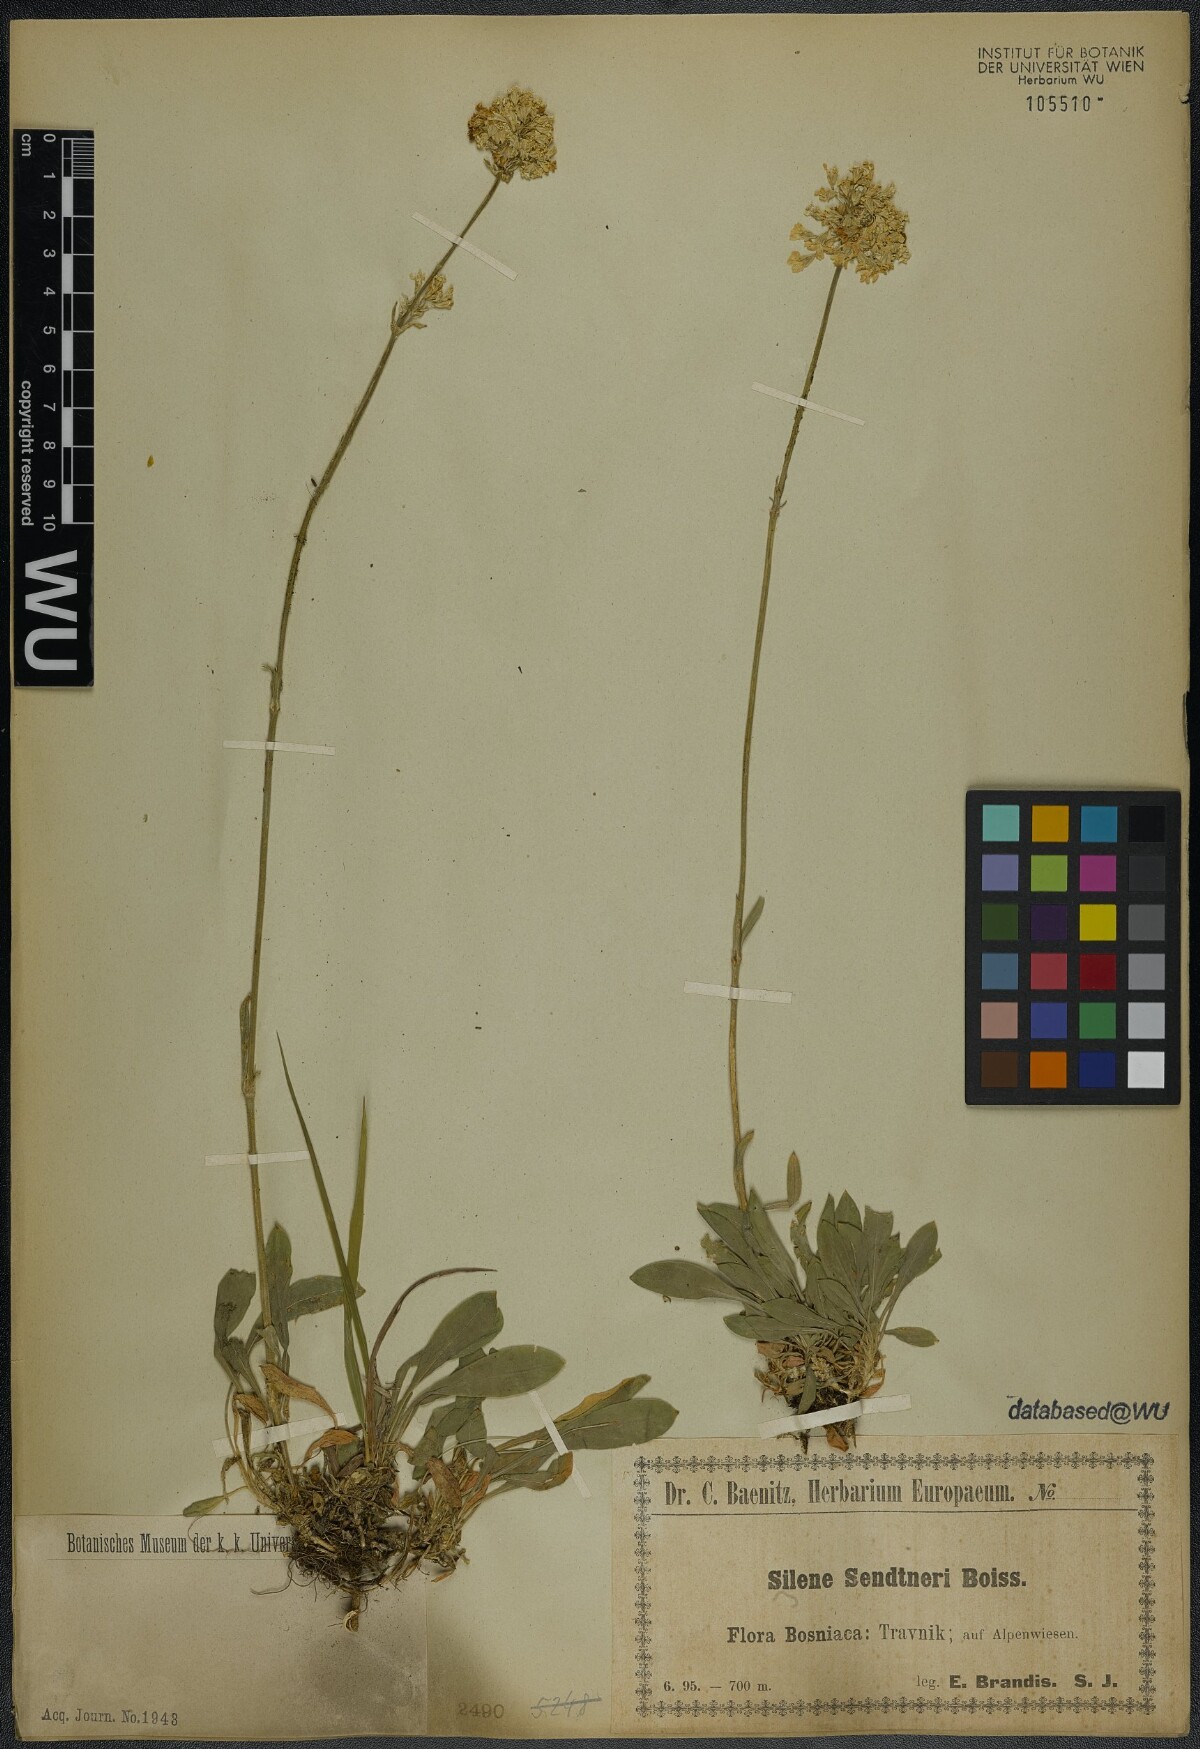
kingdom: Plantae
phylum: Tracheophyta
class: Magnoliopsida
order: Caryophyllales
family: Caryophyllaceae
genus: Silene
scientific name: Silene sendtneri
